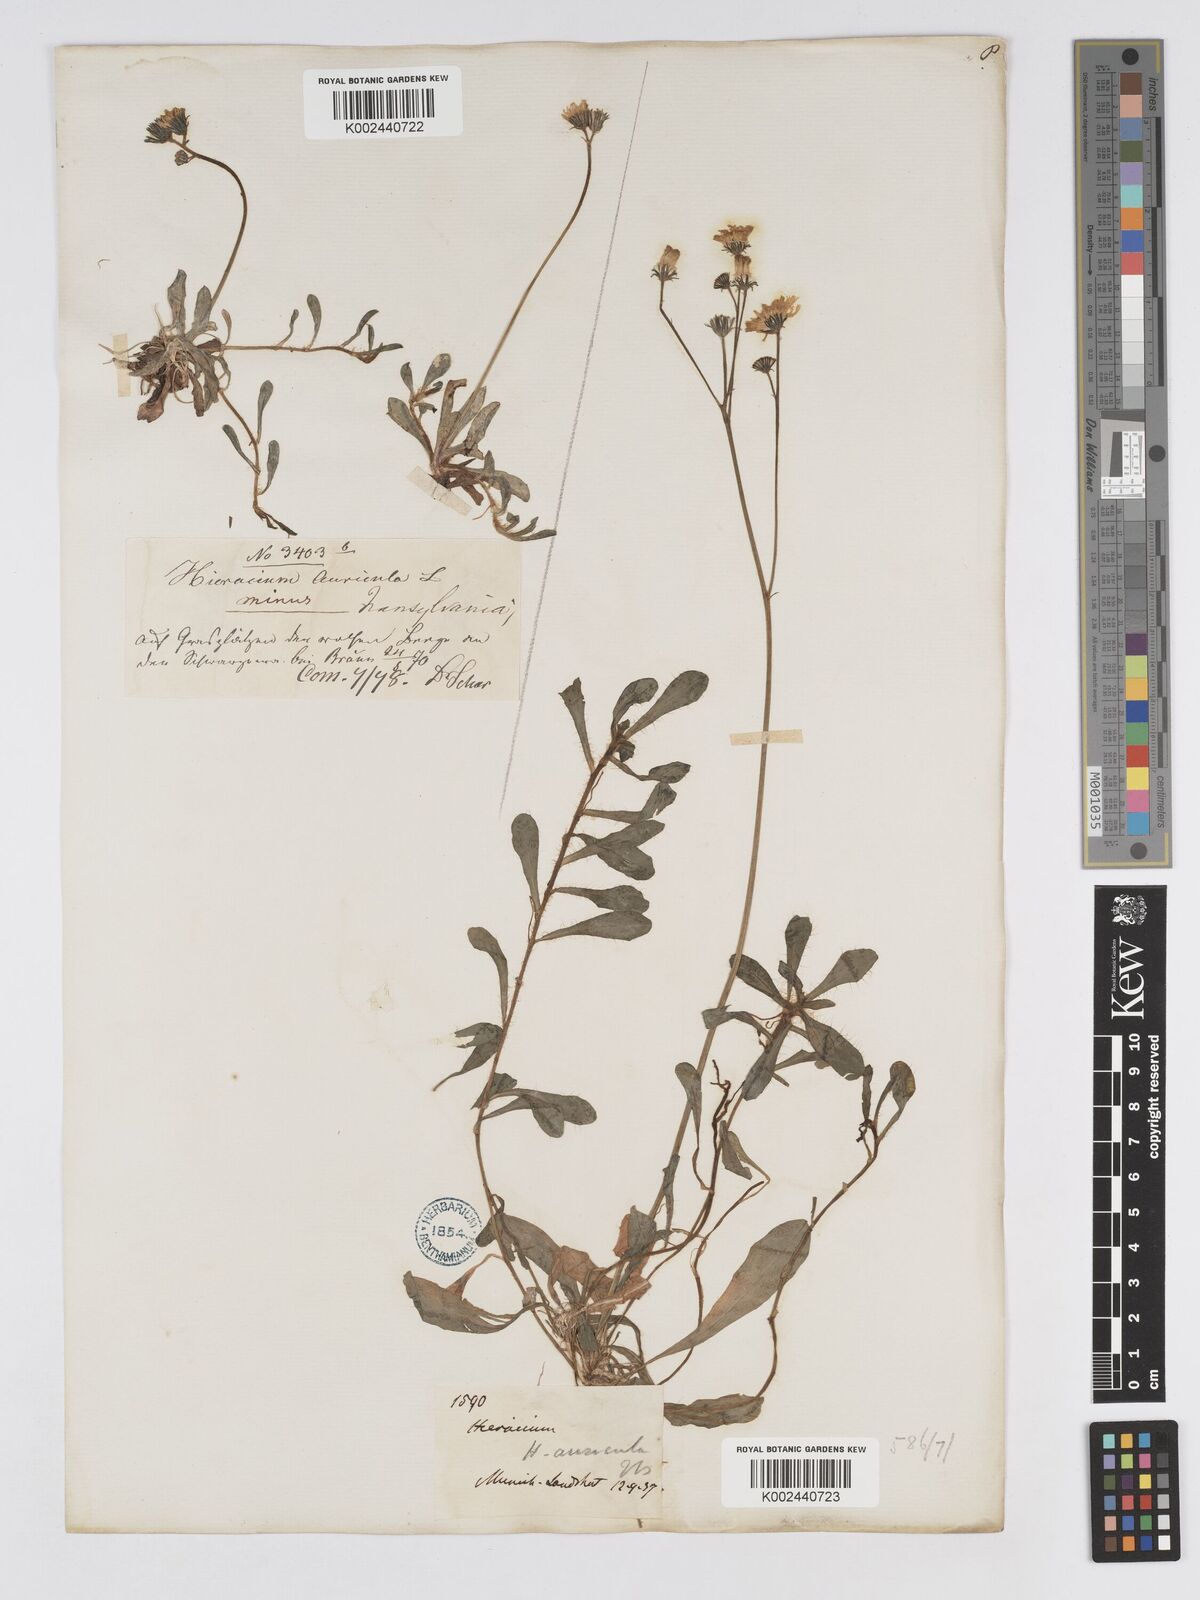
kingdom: Plantae
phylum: Tracheophyta
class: Magnoliopsida
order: Asterales
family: Asteraceae
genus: Pilosella
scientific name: Pilosella floribunda
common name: Glaucous hawkweed
